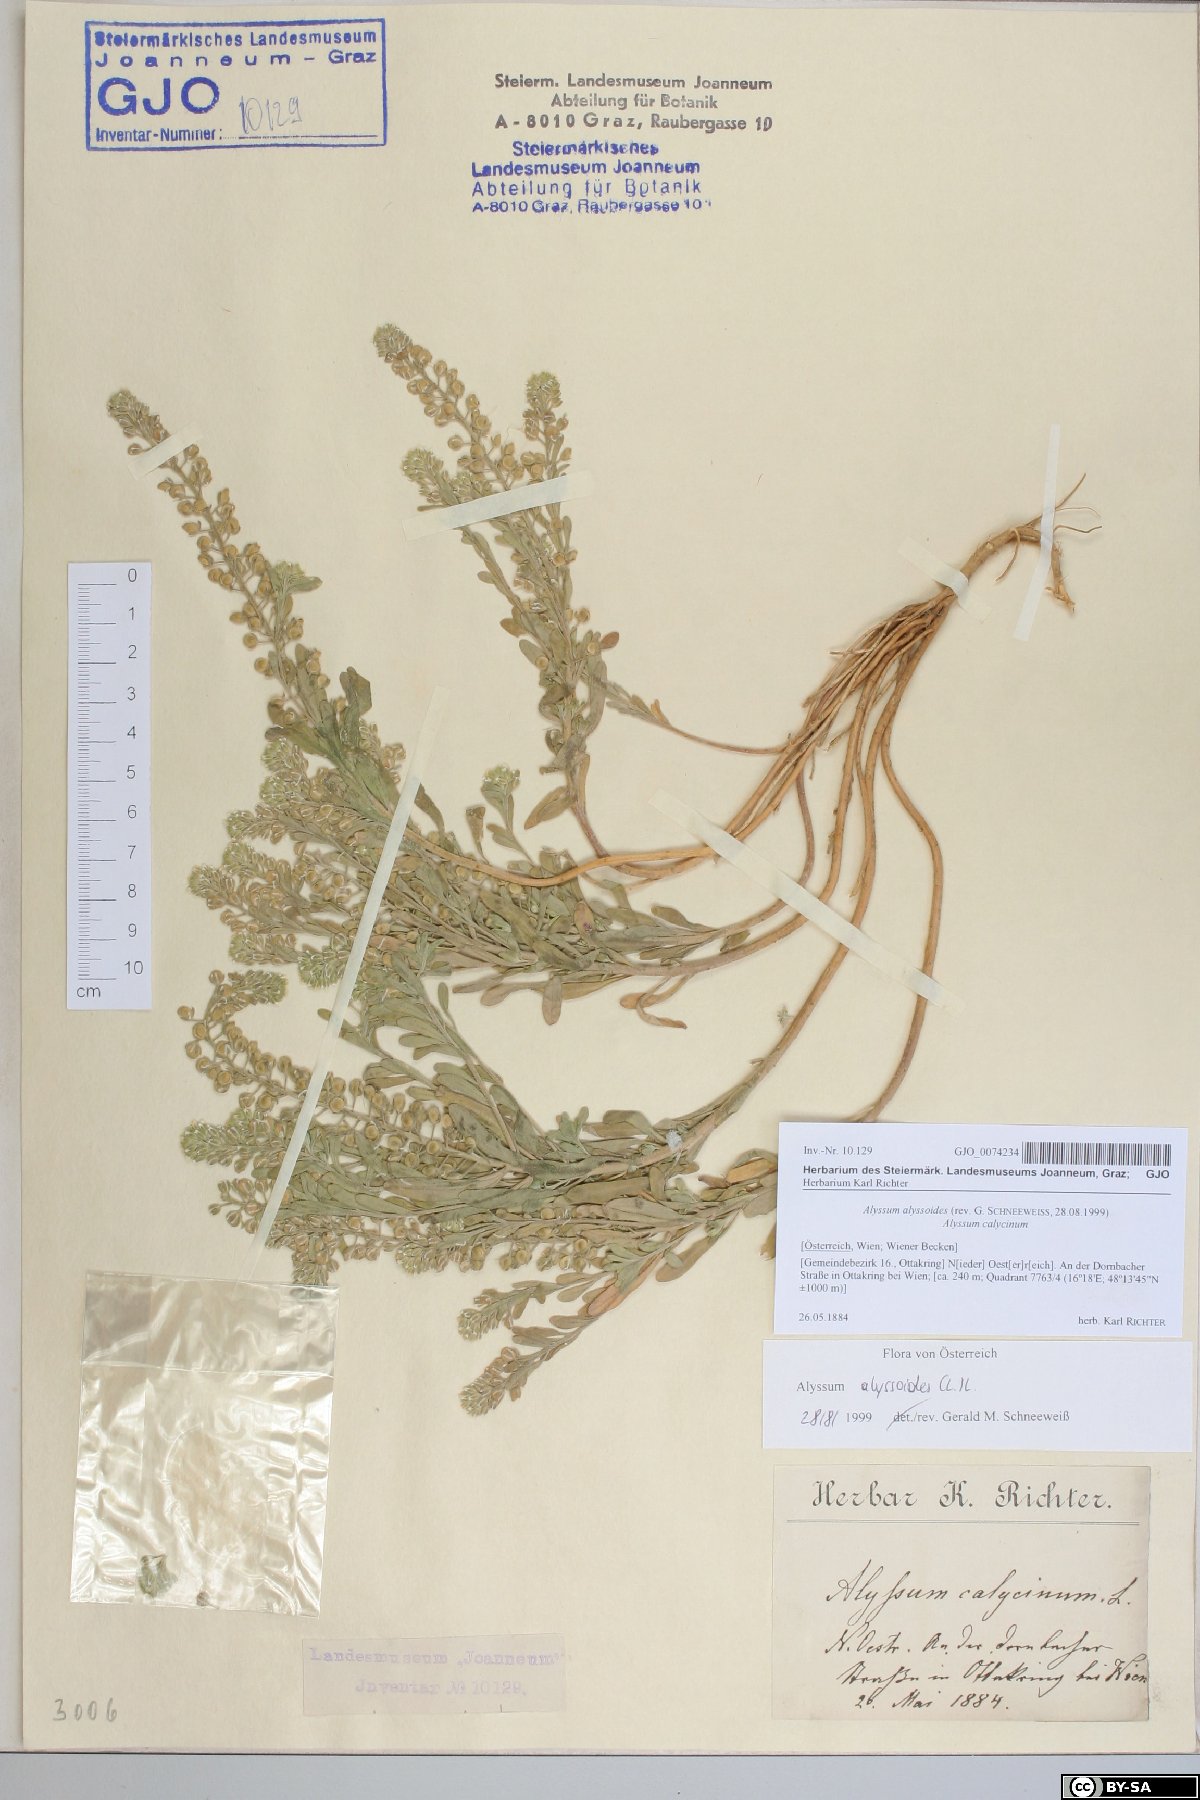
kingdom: Plantae
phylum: Tracheophyta
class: Magnoliopsida
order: Brassicales
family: Brassicaceae
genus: Alyssum
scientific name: Alyssum alyssoides
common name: Small alison
